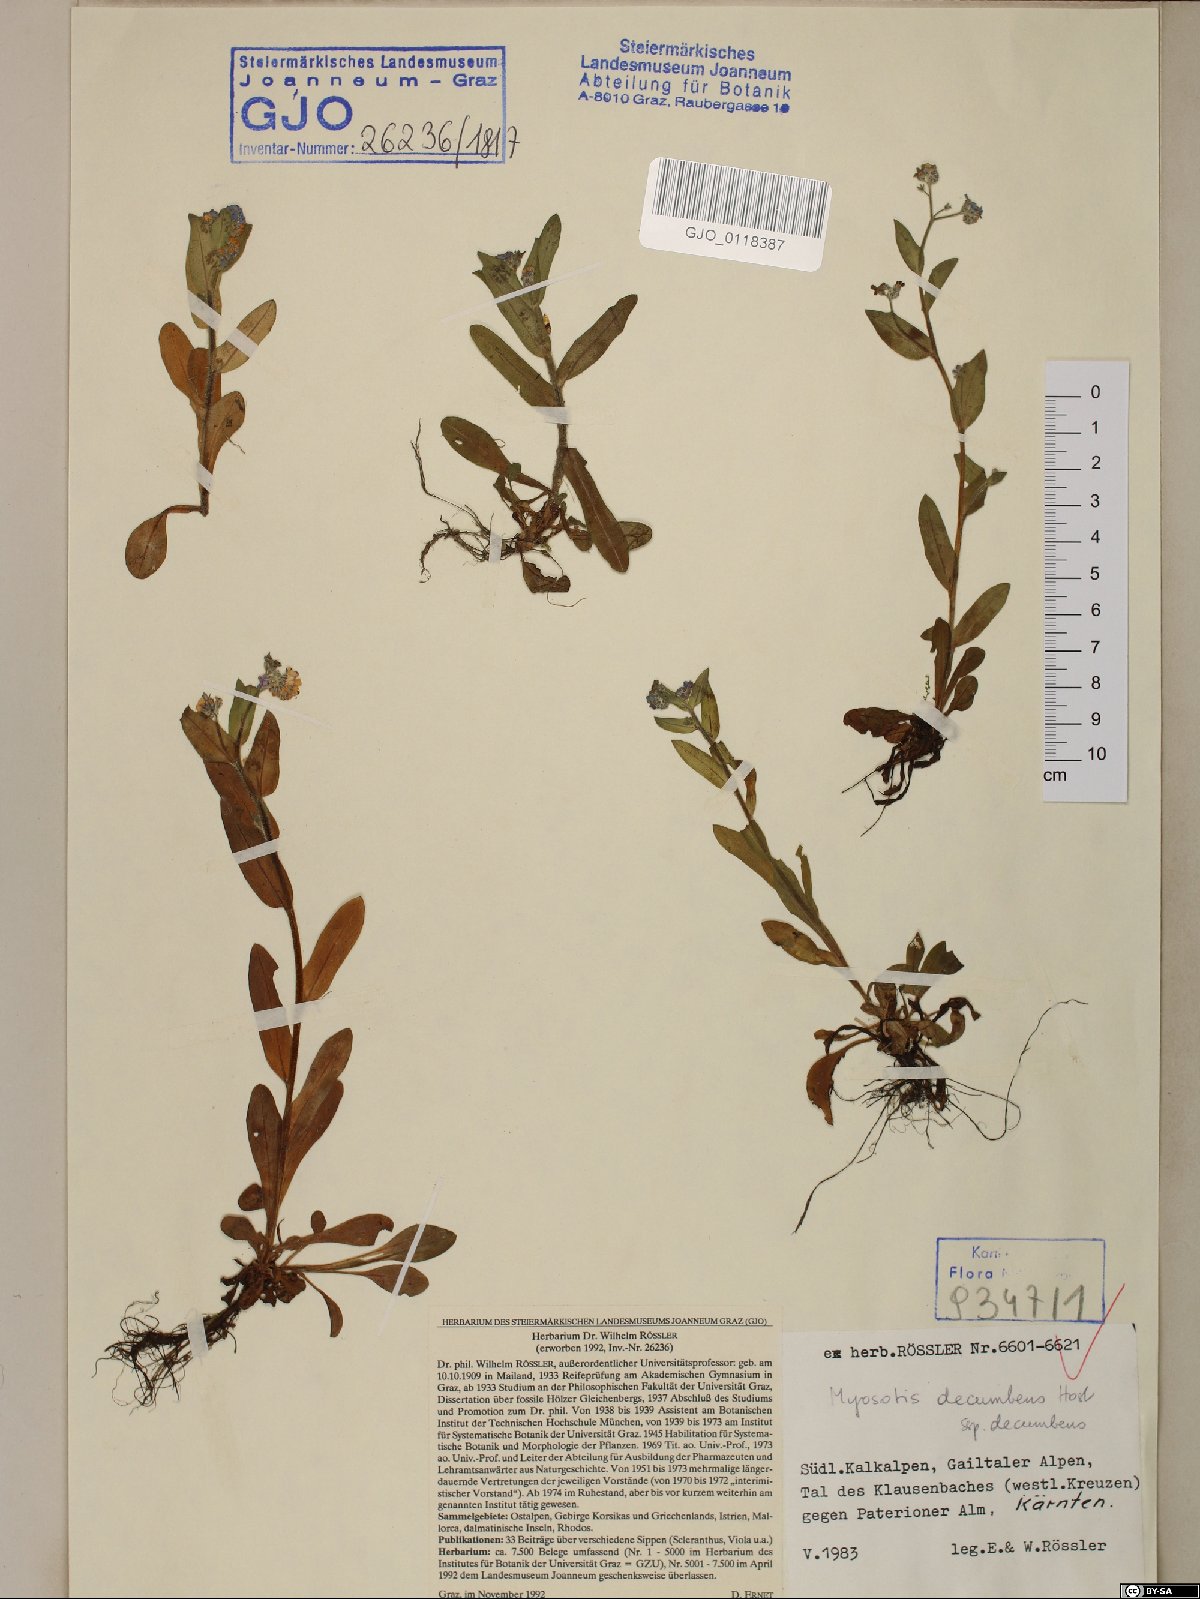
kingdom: Plantae
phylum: Tracheophyta
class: Magnoliopsida
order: Boraginales
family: Boraginaceae
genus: Myosotis
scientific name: Myosotis decumbens
